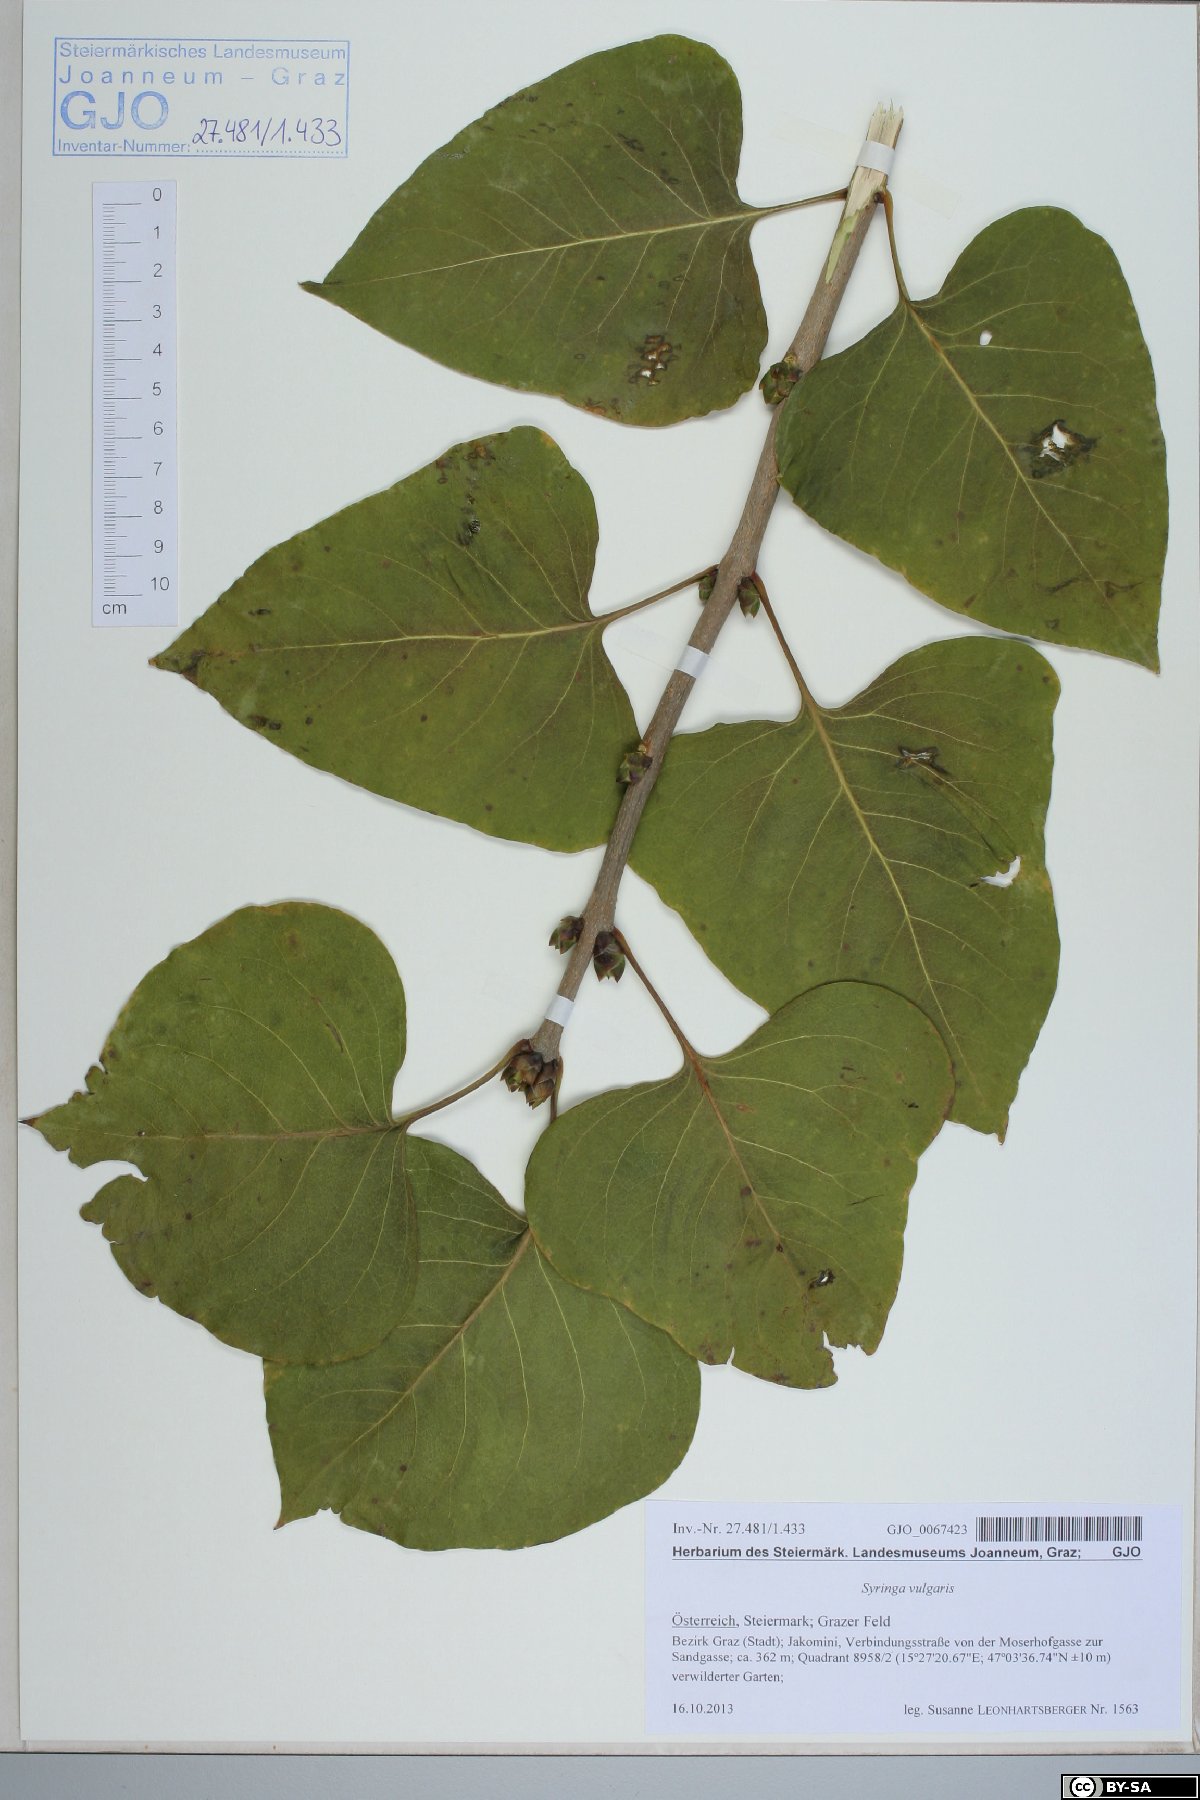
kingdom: Plantae
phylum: Tracheophyta
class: Magnoliopsida
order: Lamiales
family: Oleaceae
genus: Syringa
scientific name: Syringa vulgaris
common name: Common lilac
